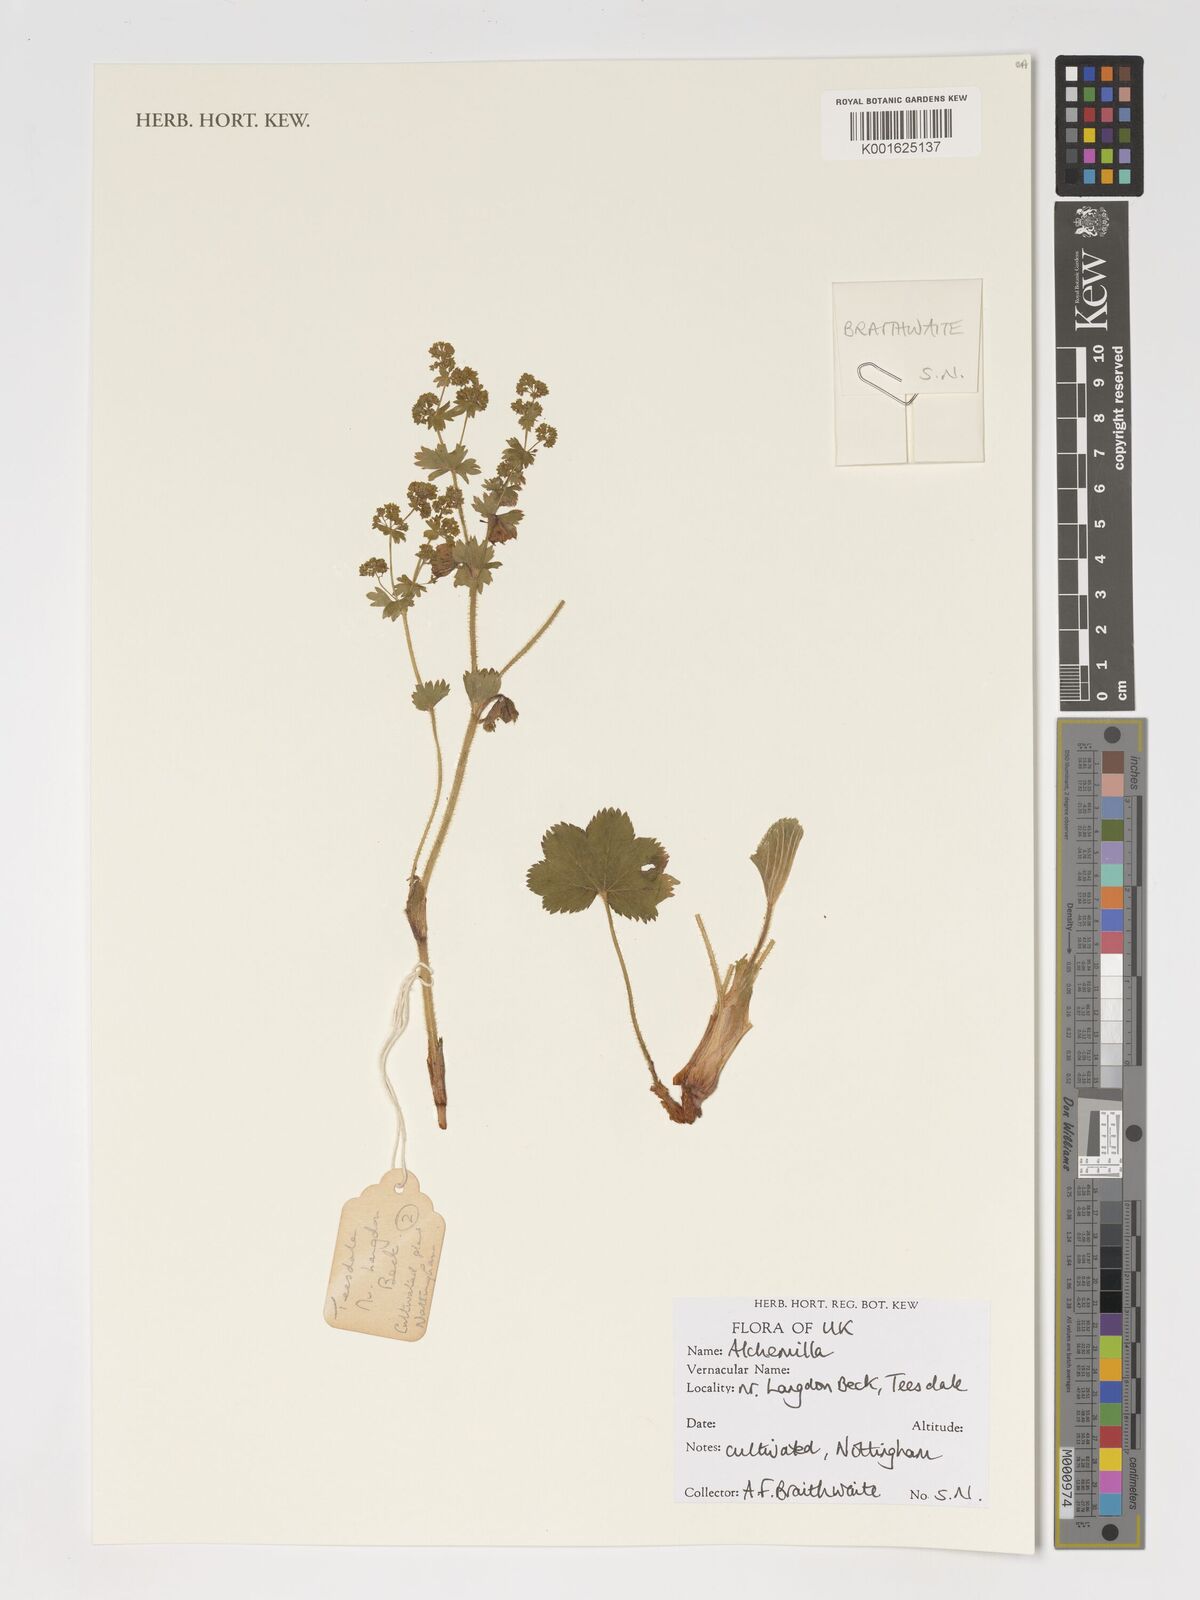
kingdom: Plantae
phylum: Tracheophyta
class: Magnoliopsida
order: Rosales
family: Rosaceae
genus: Alchemilla
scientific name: Alchemilla
